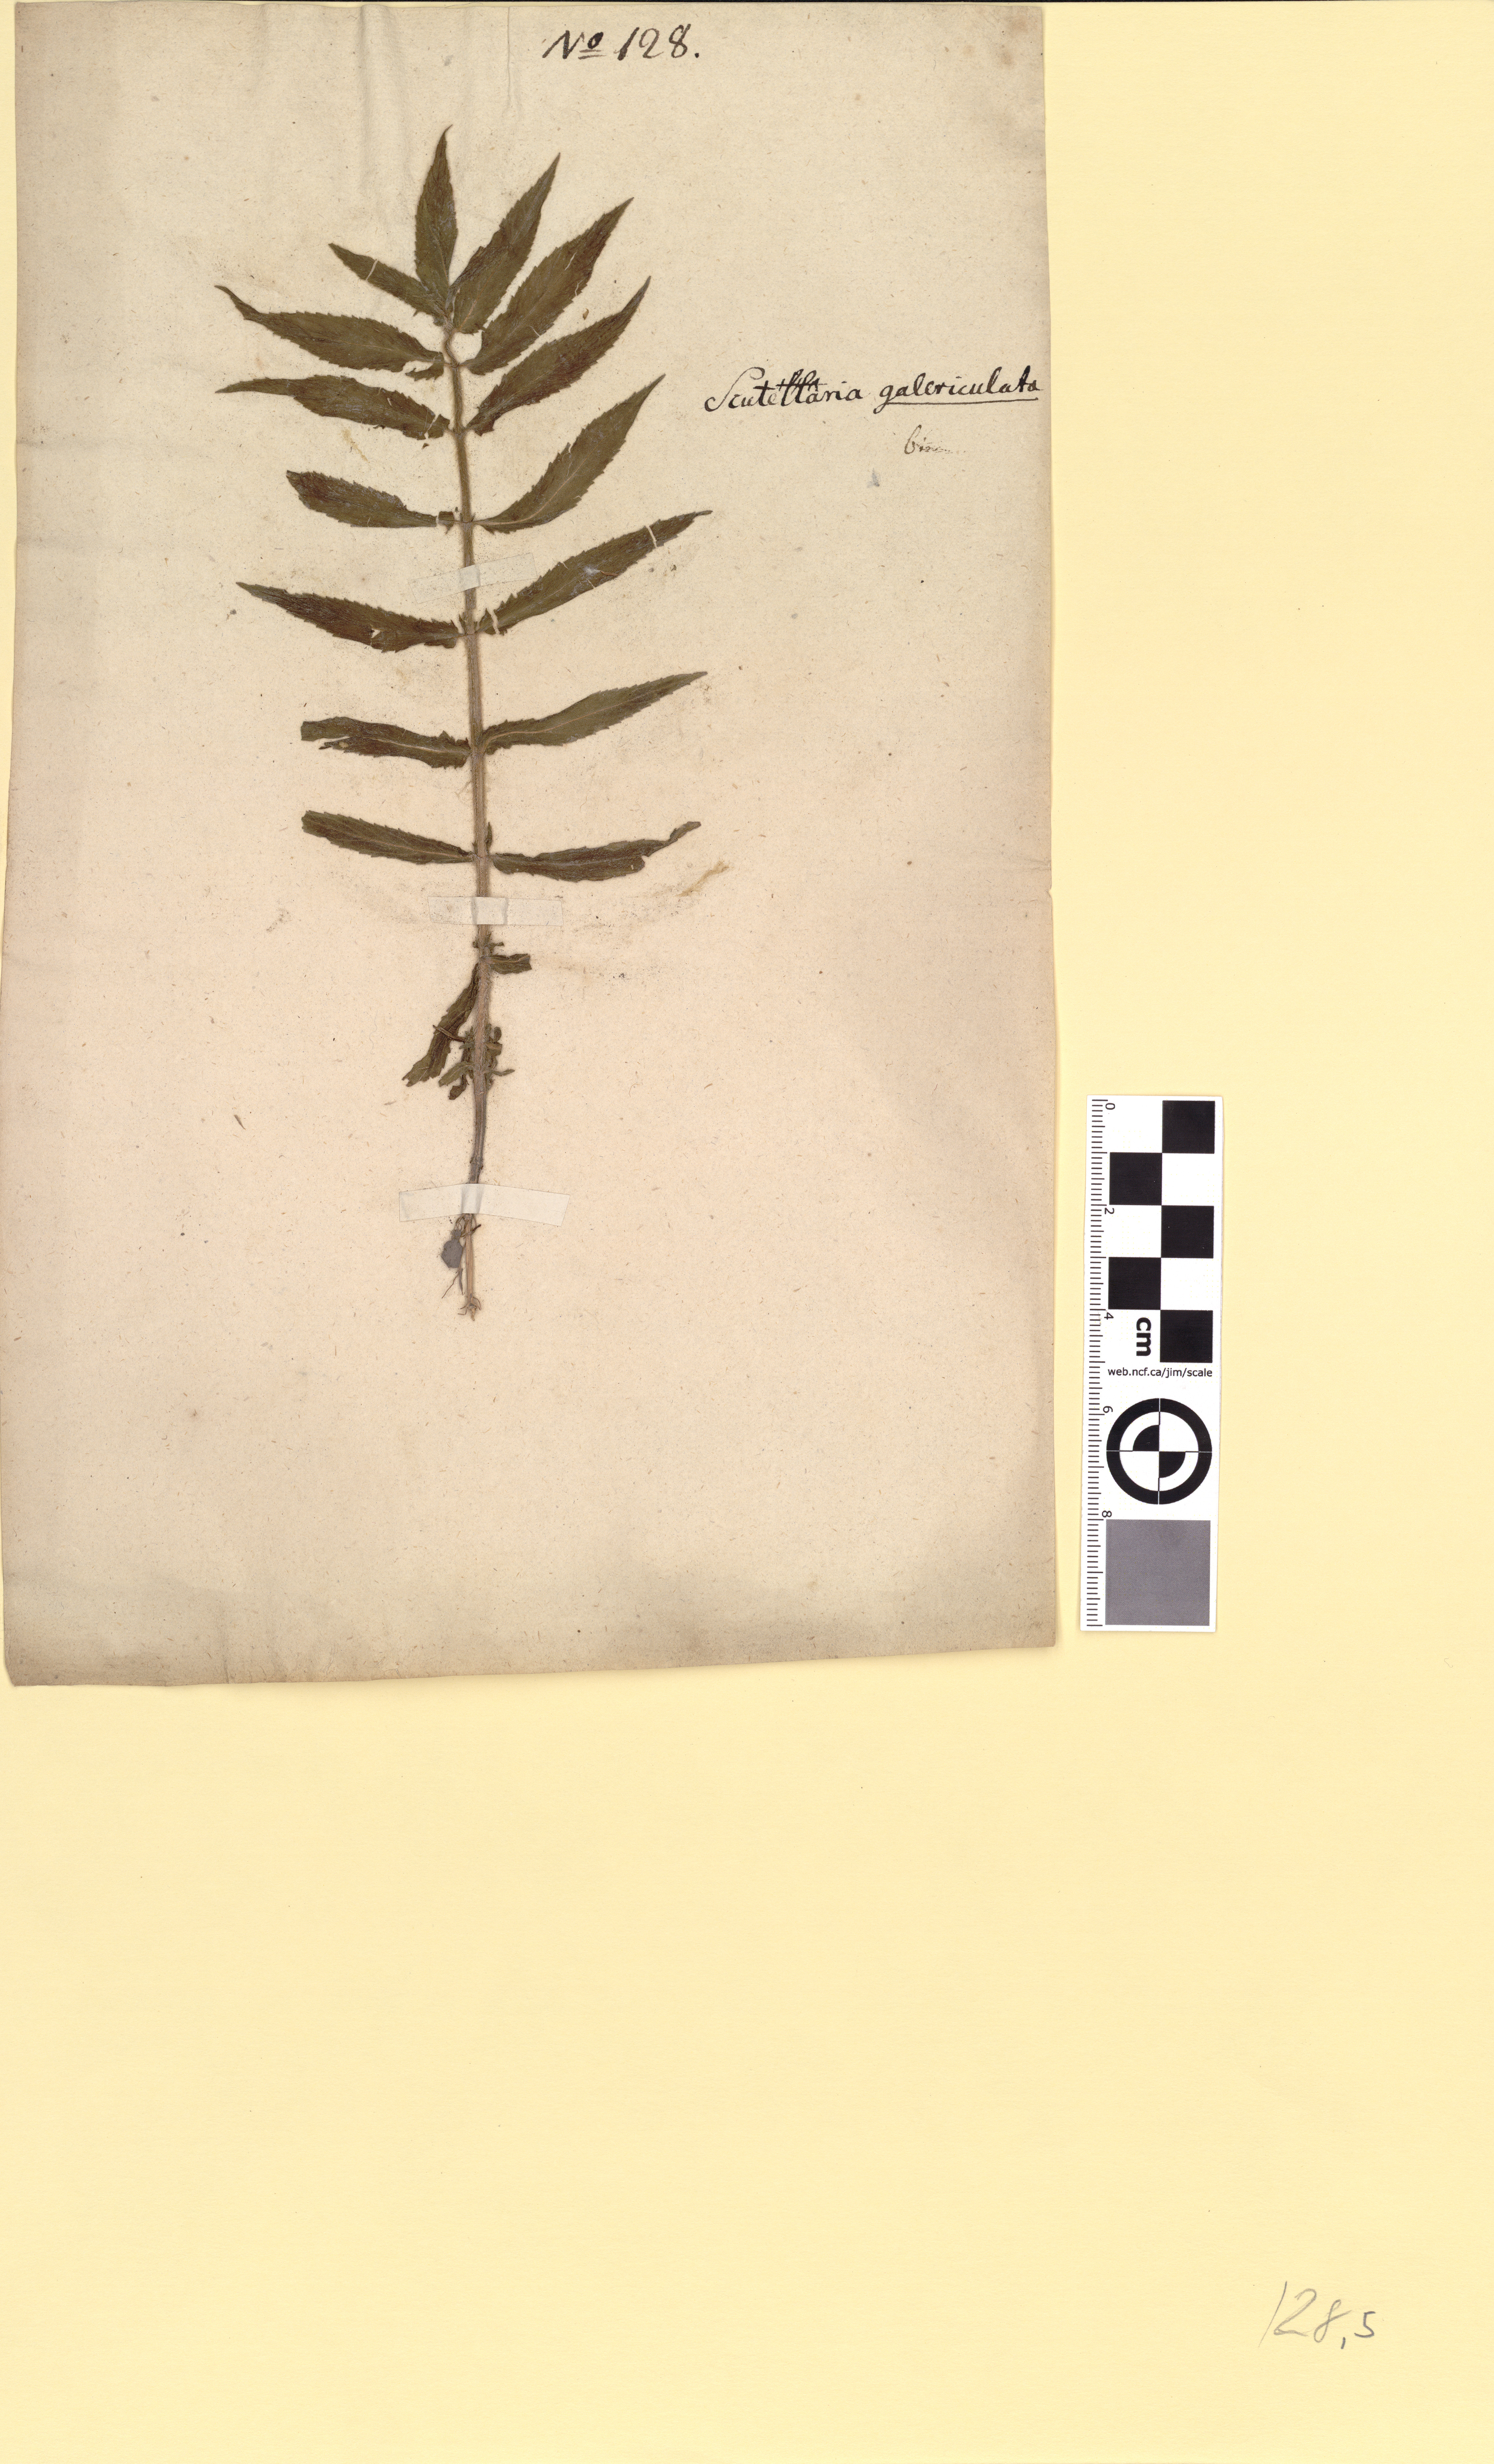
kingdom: Plantae
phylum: Tracheophyta
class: Magnoliopsida
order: Lamiales
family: Lamiaceae
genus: Stachys
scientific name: Stachys palustris
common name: Marsh woundwort
